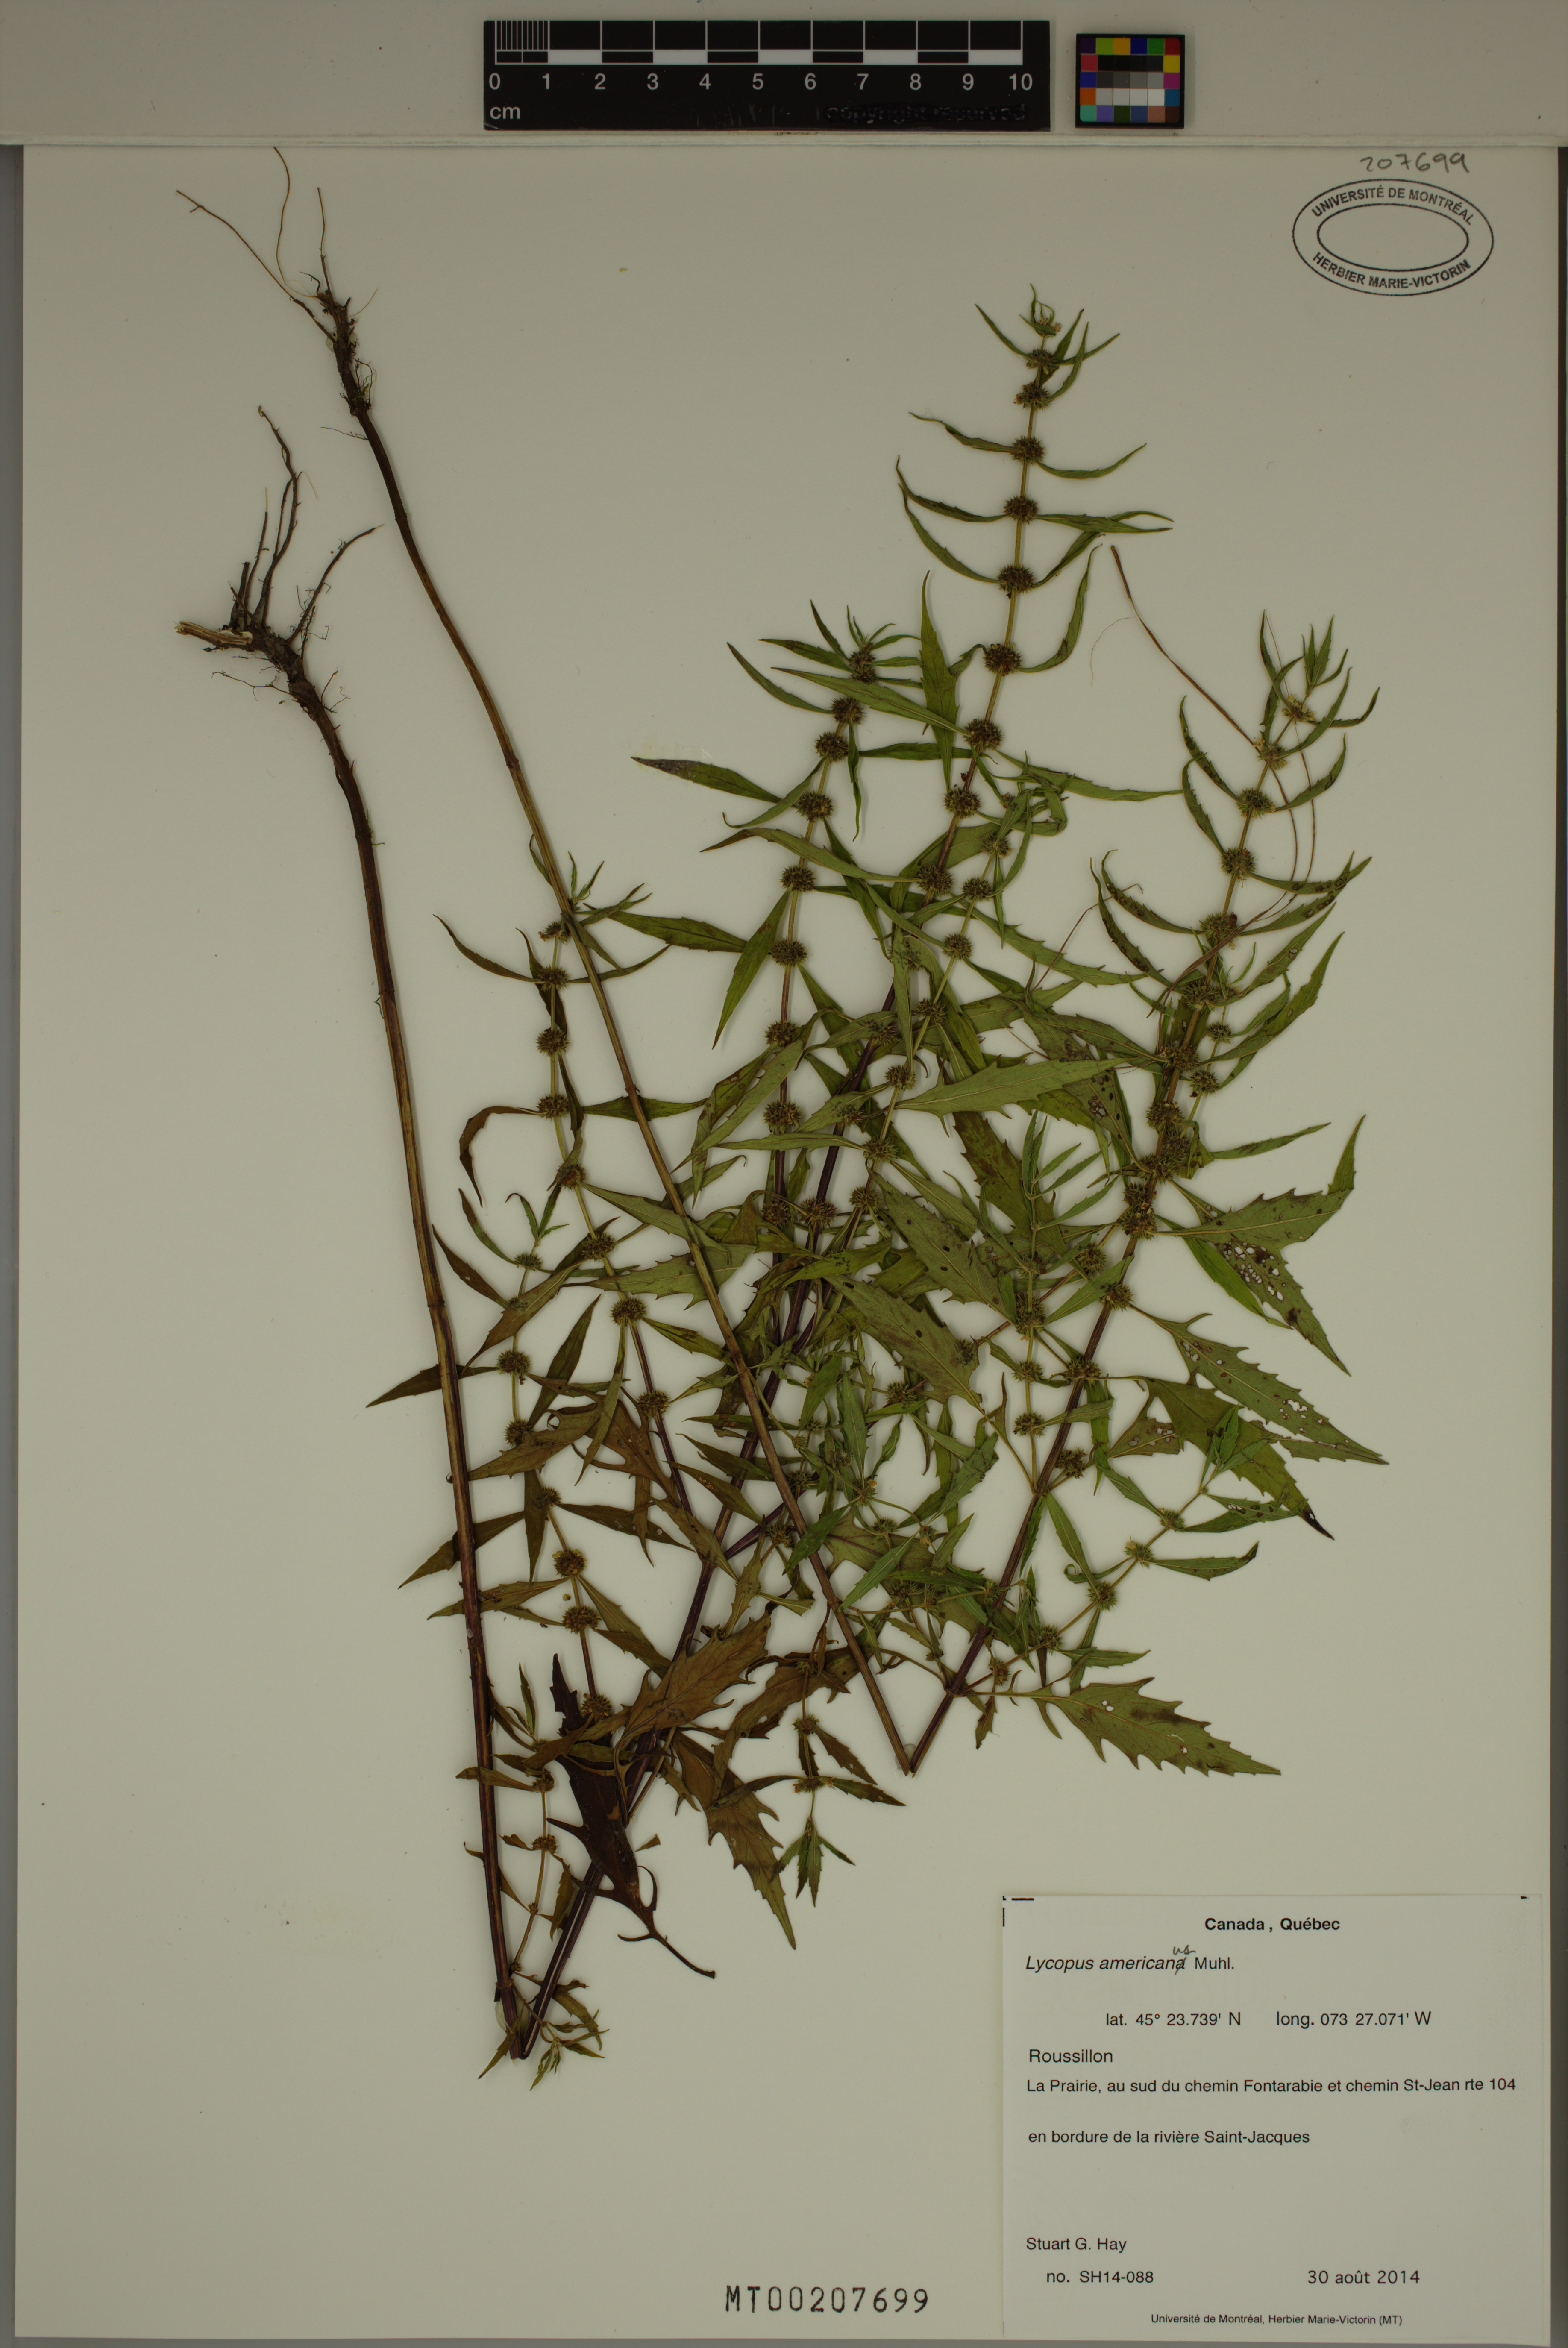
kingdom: Plantae
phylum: Tracheophyta
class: Magnoliopsida
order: Lamiales
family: Lamiaceae
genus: Lycopus
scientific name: Lycopus americanus
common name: American bugleweed
